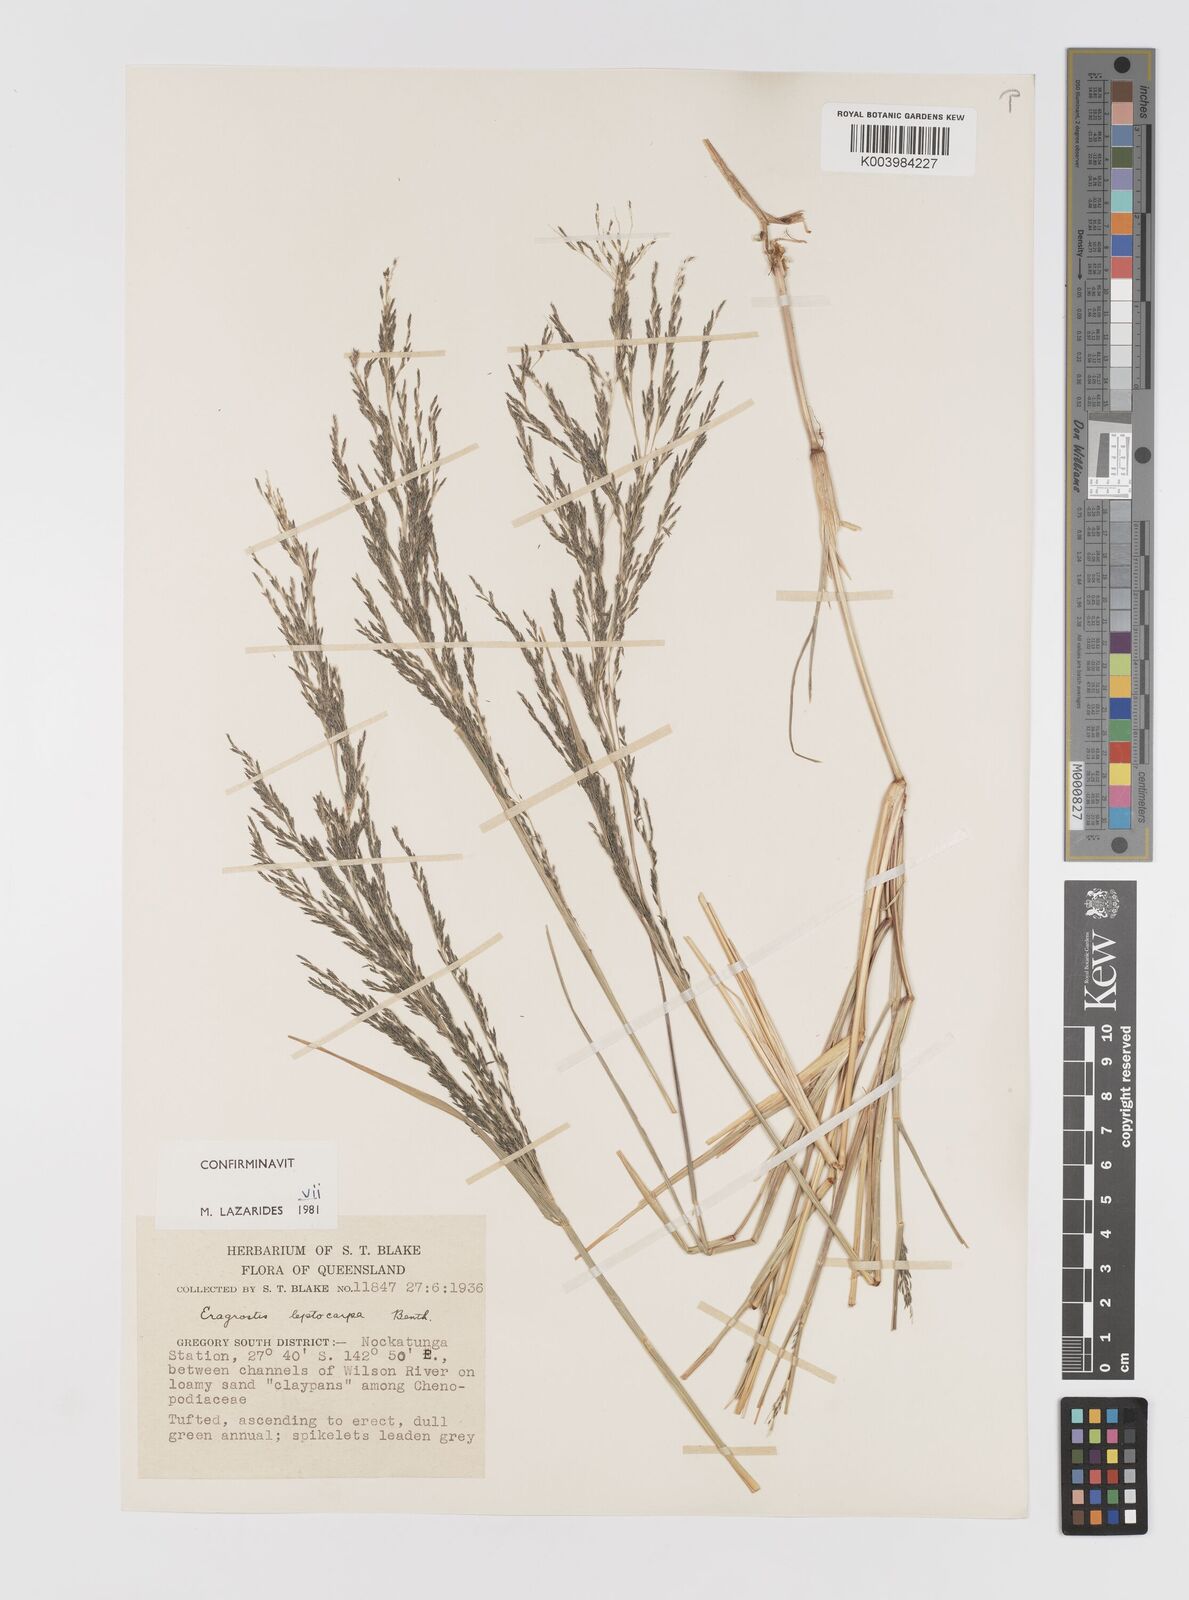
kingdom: Plantae
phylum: Tracheophyta
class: Liliopsida
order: Poales
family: Poaceae
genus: Eragrostis
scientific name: Eragrostis leptocarpa
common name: Drooping love grass
